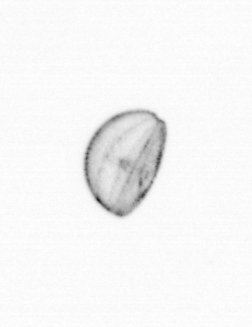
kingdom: Chromista
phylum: Ochrophyta
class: Bacillariophyceae
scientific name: Bacillariophyceae
